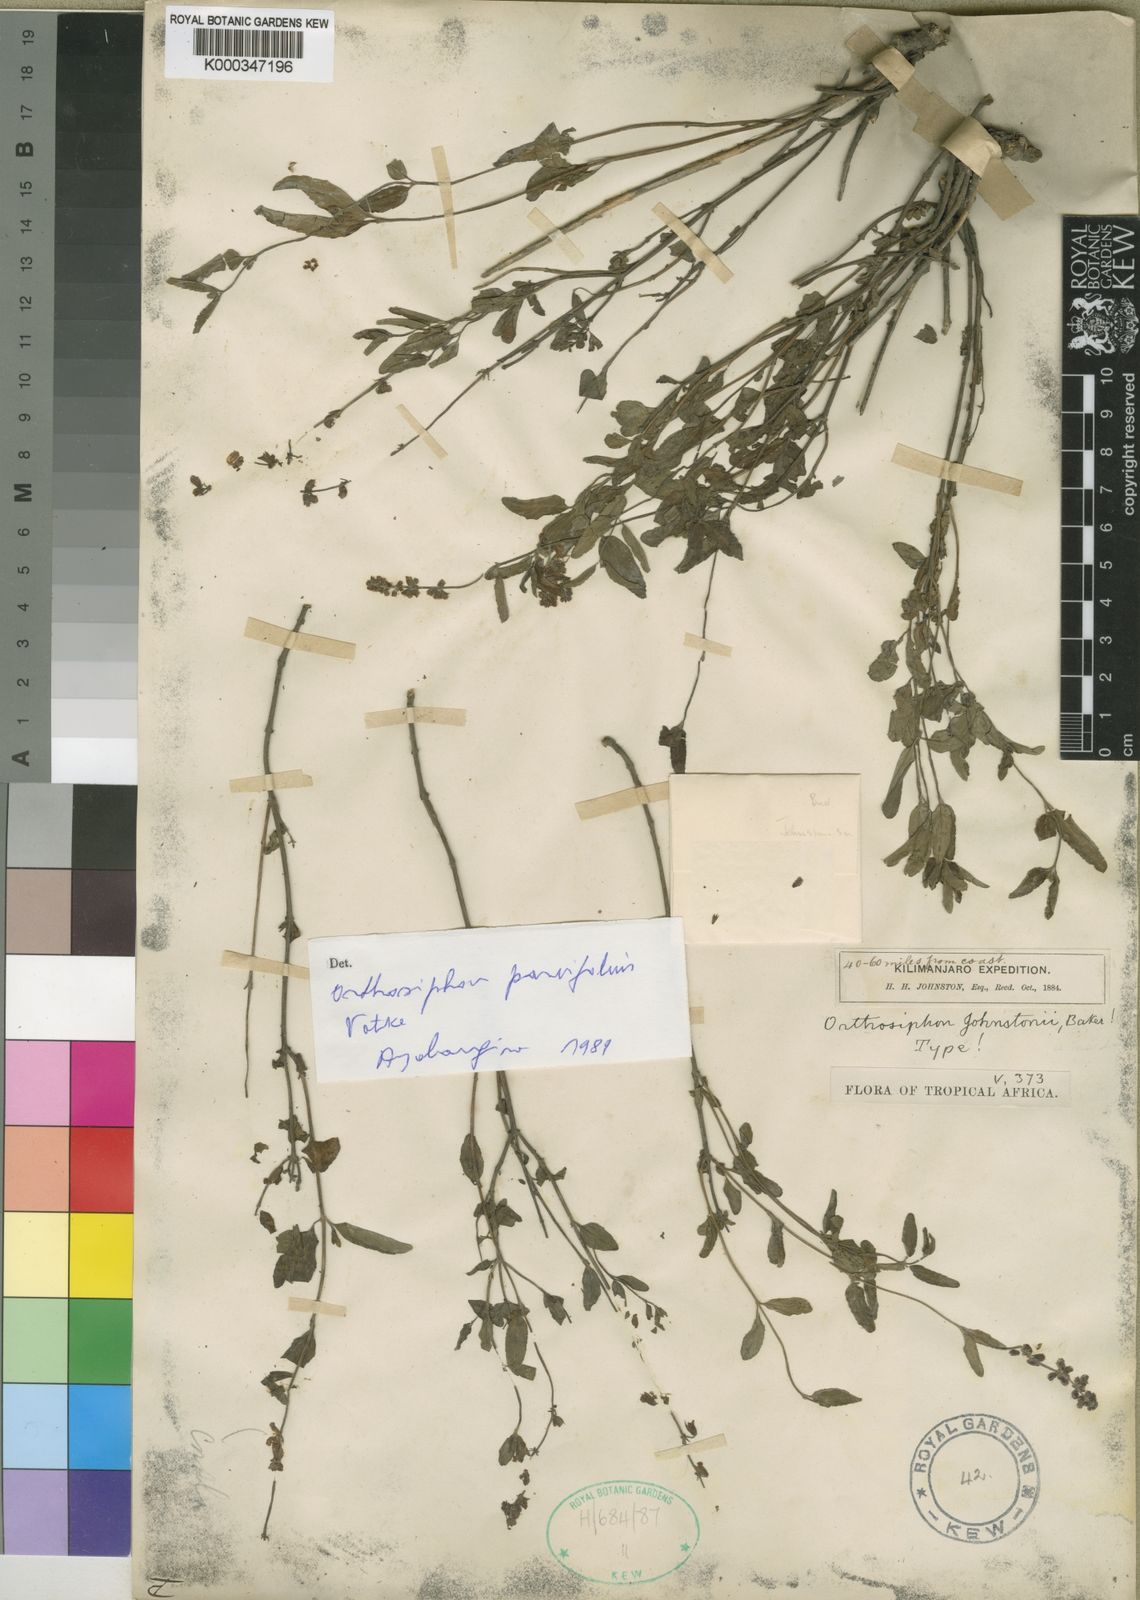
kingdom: Plantae
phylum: Tracheophyta
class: Magnoliopsida
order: Lamiales
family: Lamiaceae
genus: Orthosiphon
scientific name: Orthosiphon parvifolius
